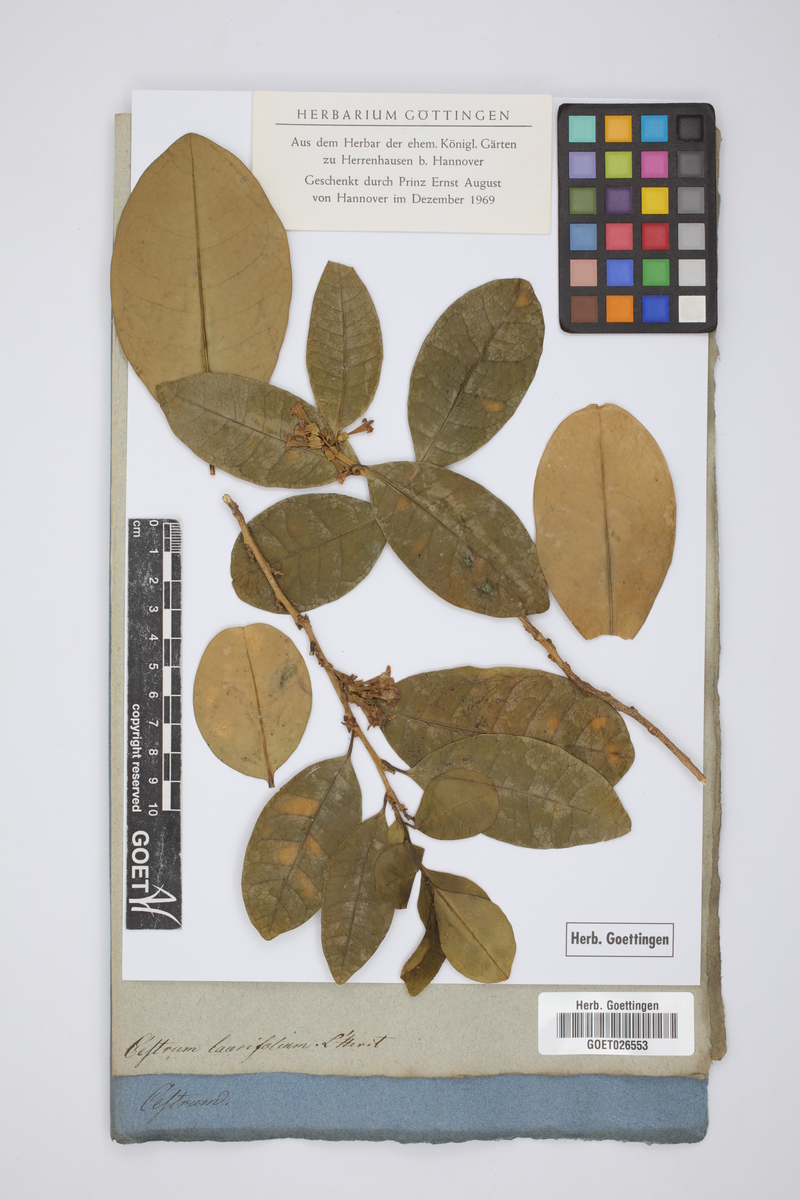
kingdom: Plantae
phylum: Tracheophyta
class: Magnoliopsida
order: Solanales
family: Solanaceae
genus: Cestrum
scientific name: Cestrum
